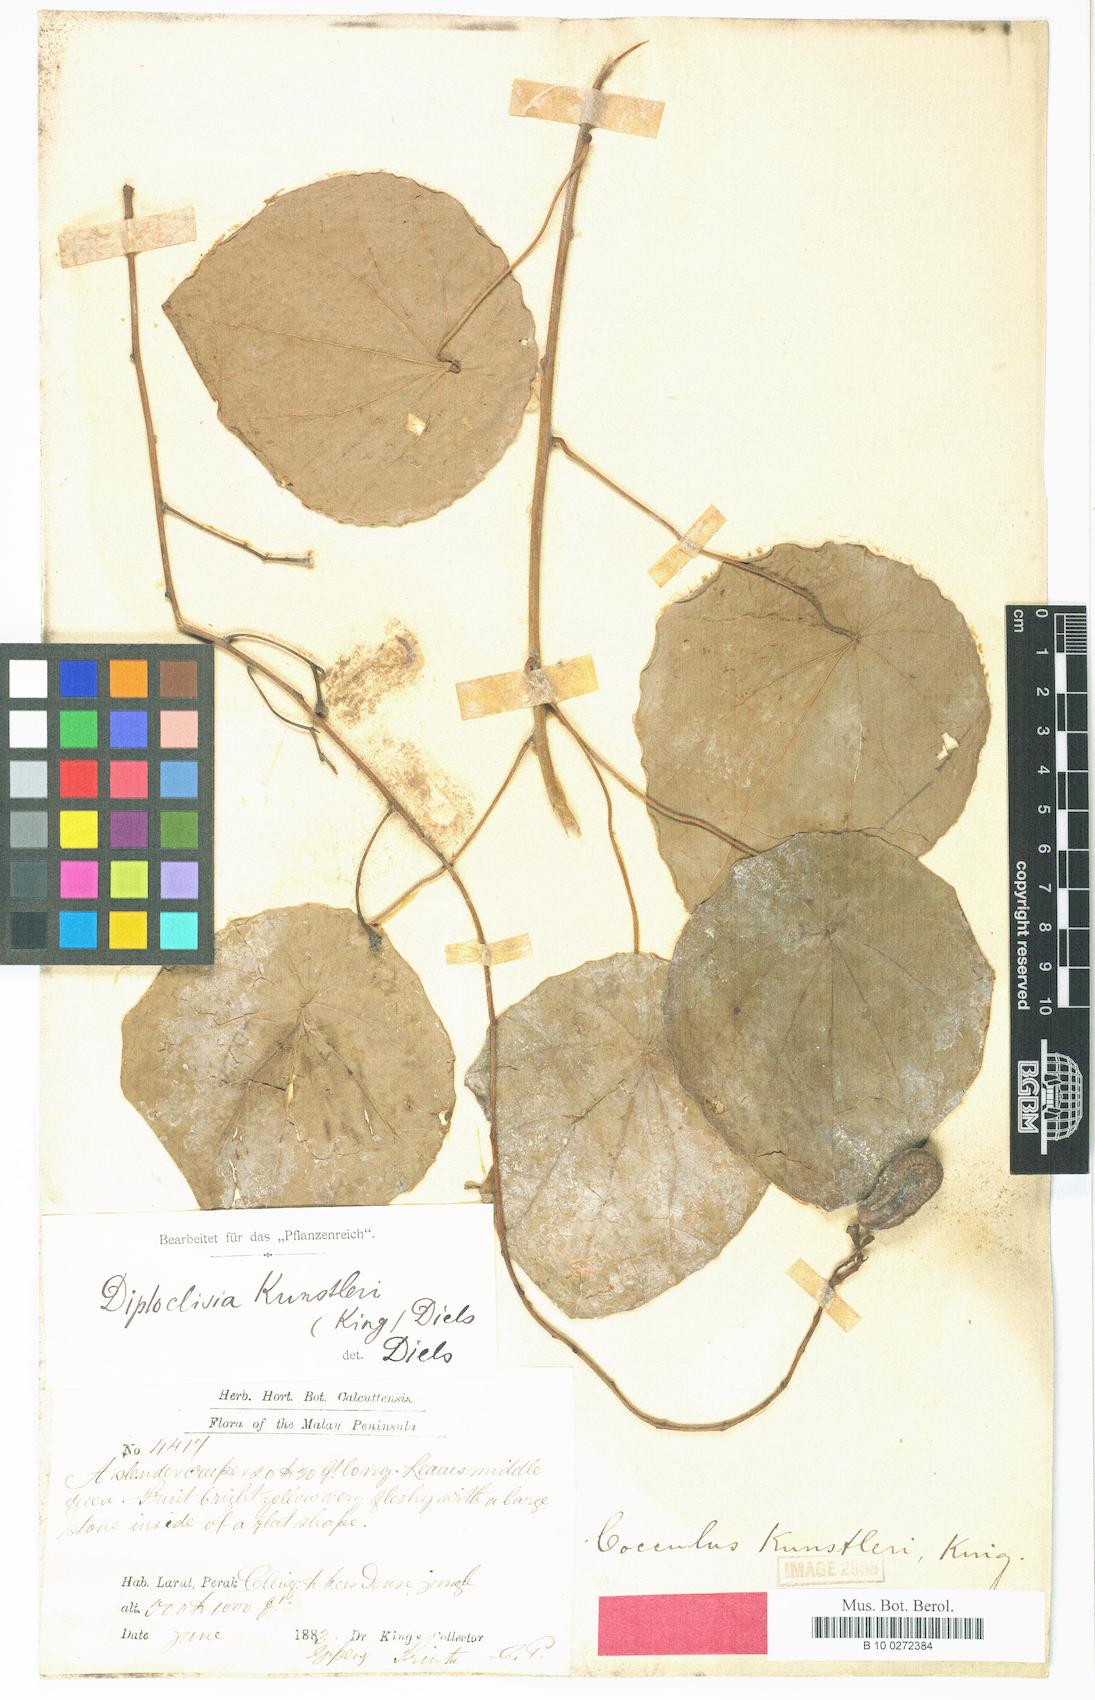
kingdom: Plantae
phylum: Tracheophyta
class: Magnoliopsida
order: Ranunculales
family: Menispermaceae
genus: Diploclisia
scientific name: Diploclisia glaucescens
